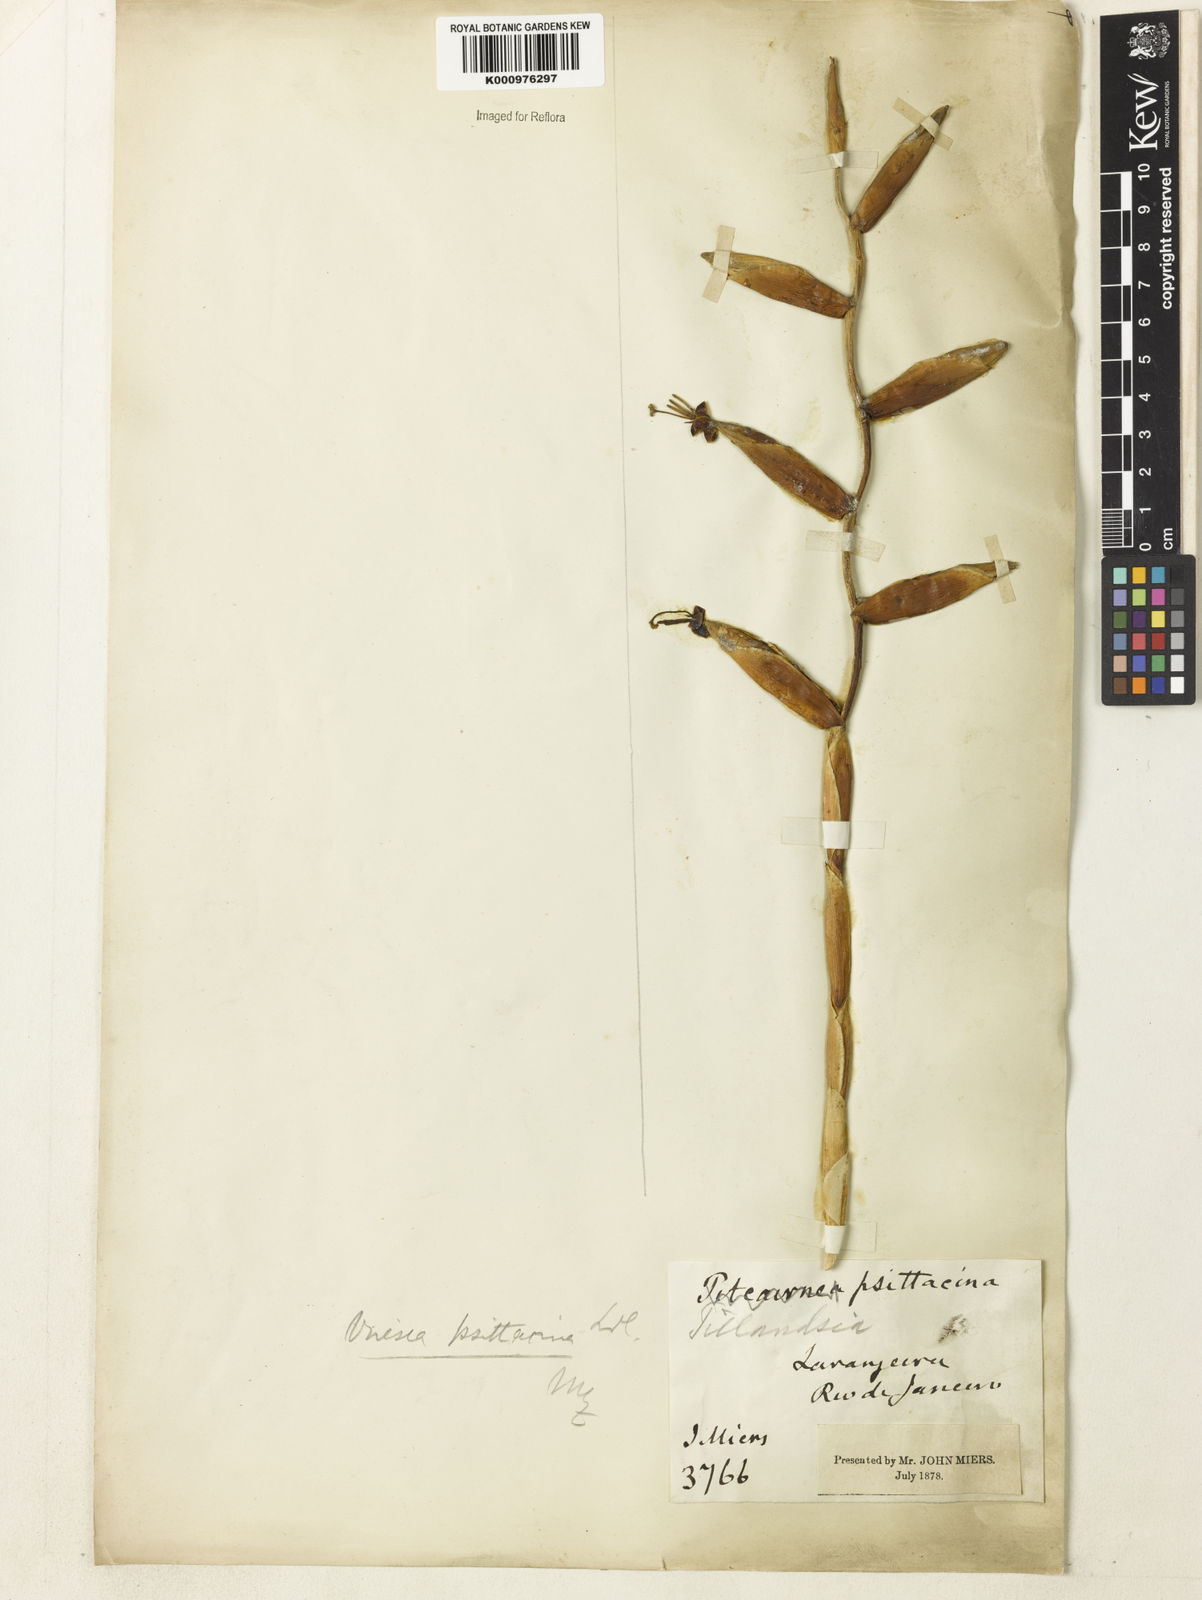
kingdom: Plantae
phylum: Tracheophyta
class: Liliopsida
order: Poales
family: Bromeliaceae
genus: Vriesea
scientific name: Vriesea psittacina
